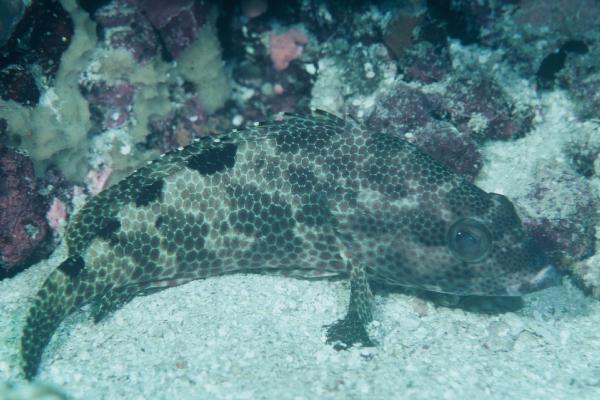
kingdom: Animalia
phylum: Chordata
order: Perciformes
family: Serranidae
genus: Epinephelus
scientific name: Epinephelus spilotoceps
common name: Foursaddle grouper
